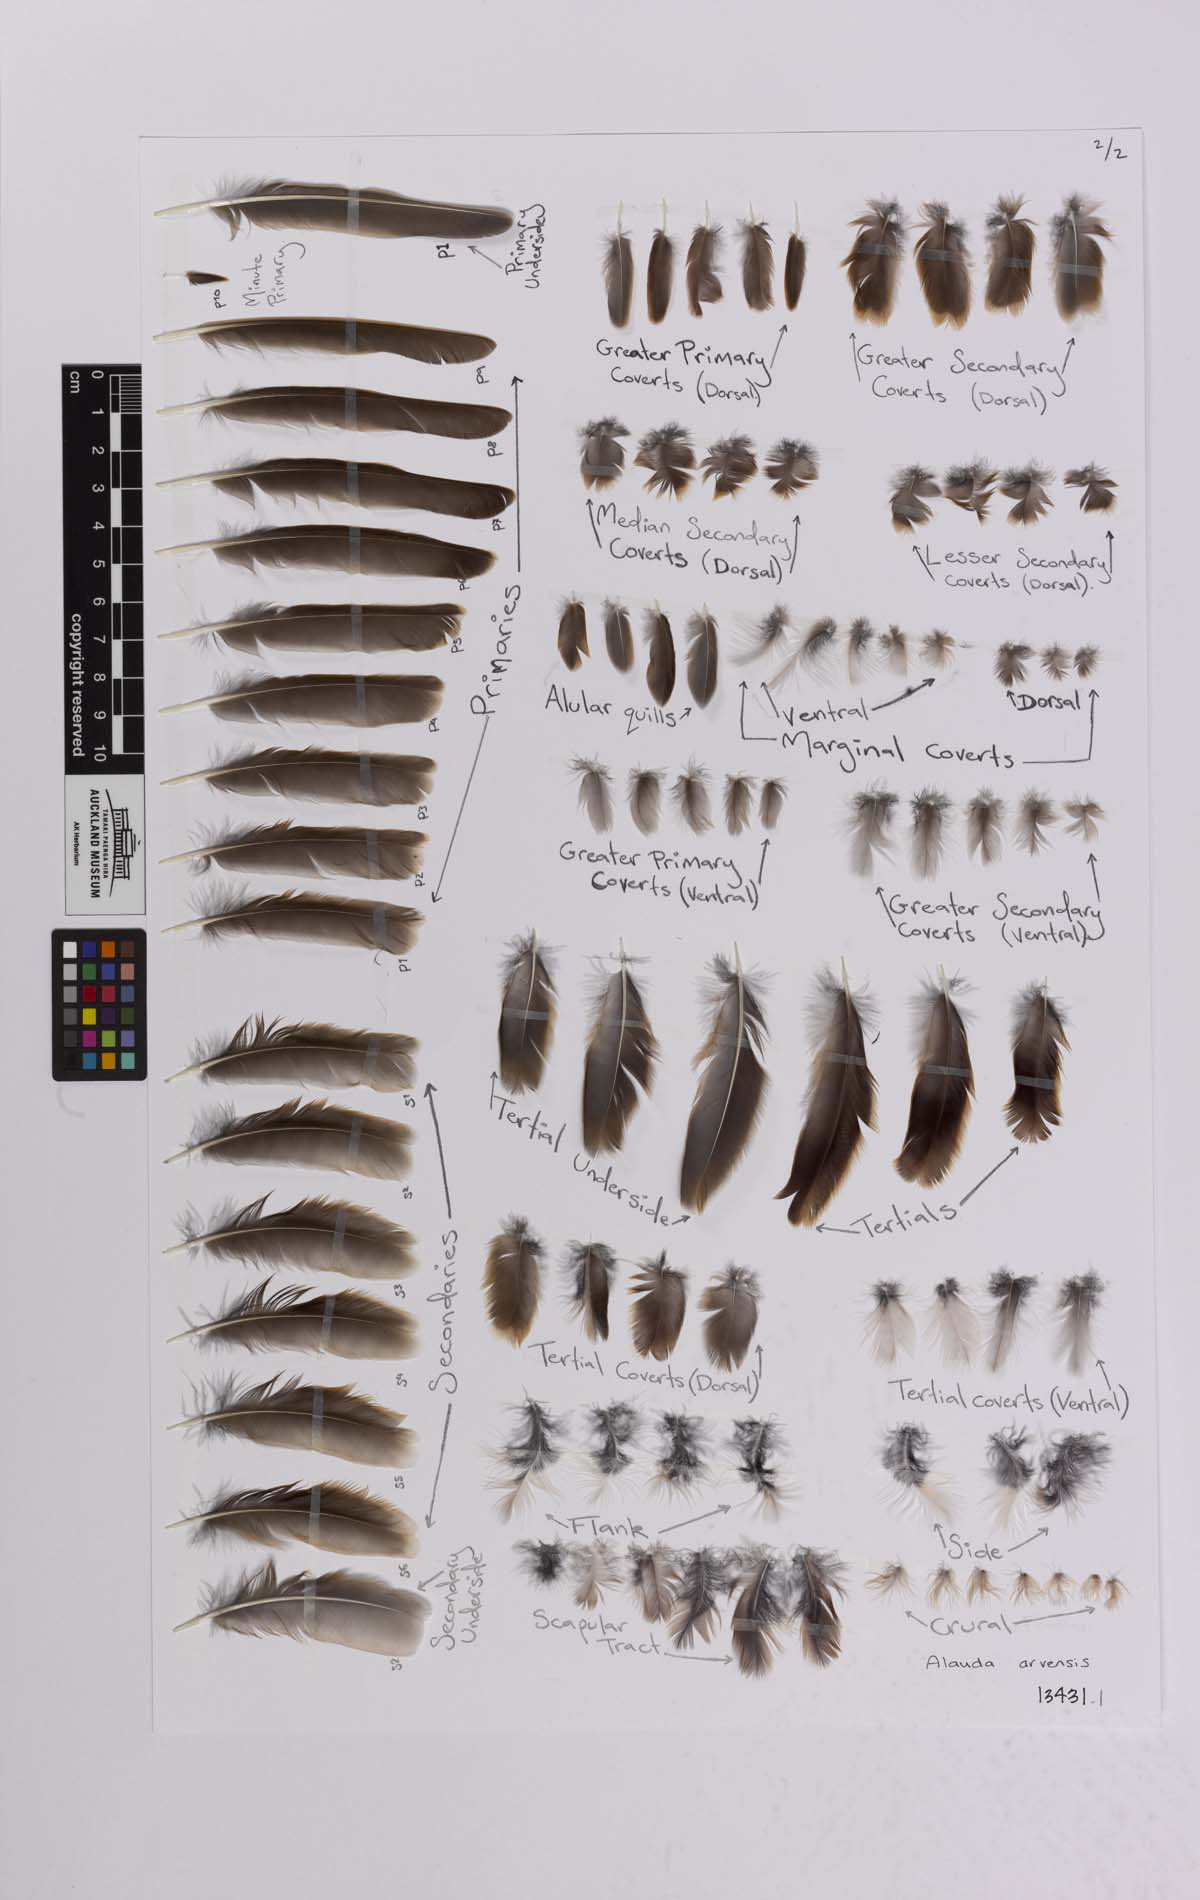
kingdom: Animalia
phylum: Chordata
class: Aves
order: Passeriformes
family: Alaudidae
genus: Alauda
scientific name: Alauda arvensis
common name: Eurasian skylark
